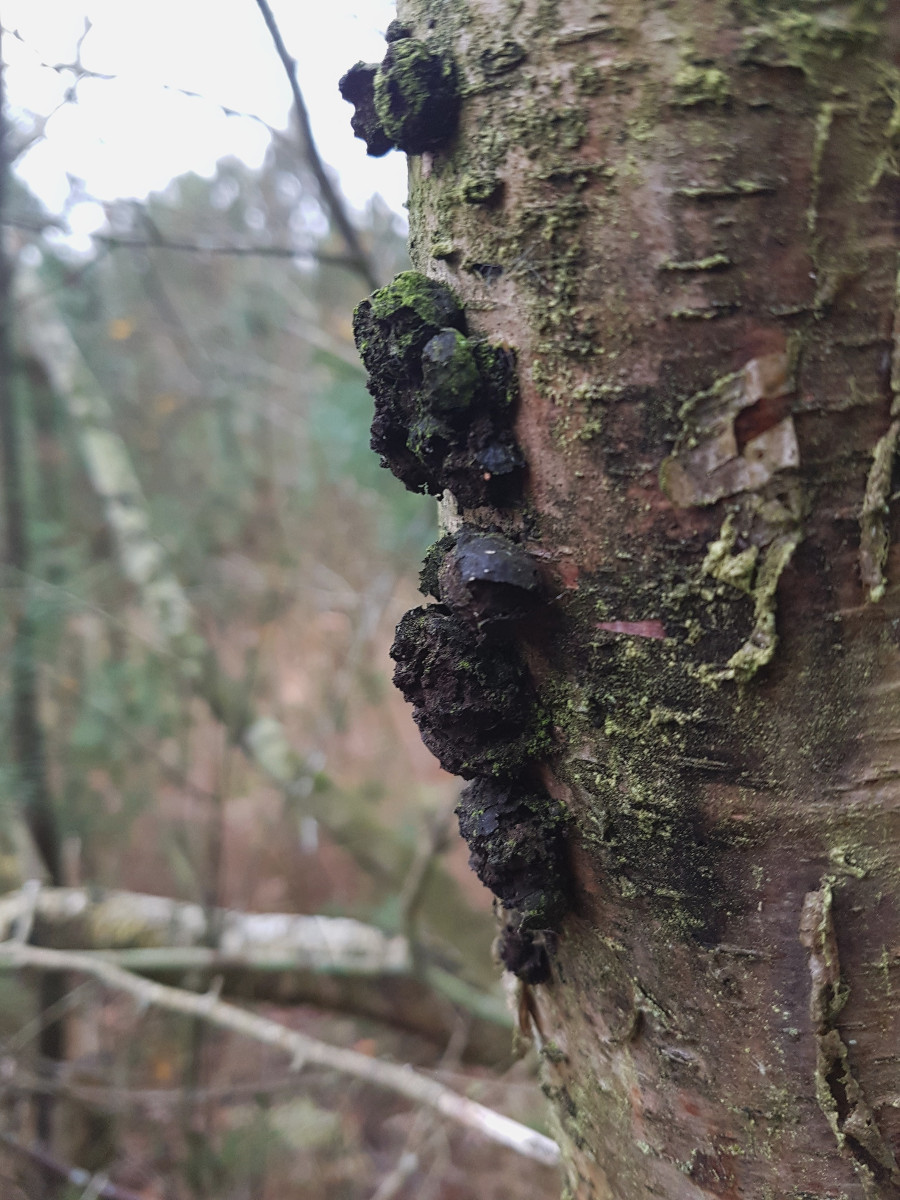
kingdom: Fungi
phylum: Ascomycota
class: Sordariomycetes
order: Xylariales
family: Hypoxylaceae
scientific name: Hypoxylaceae
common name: kulbærfamilien
